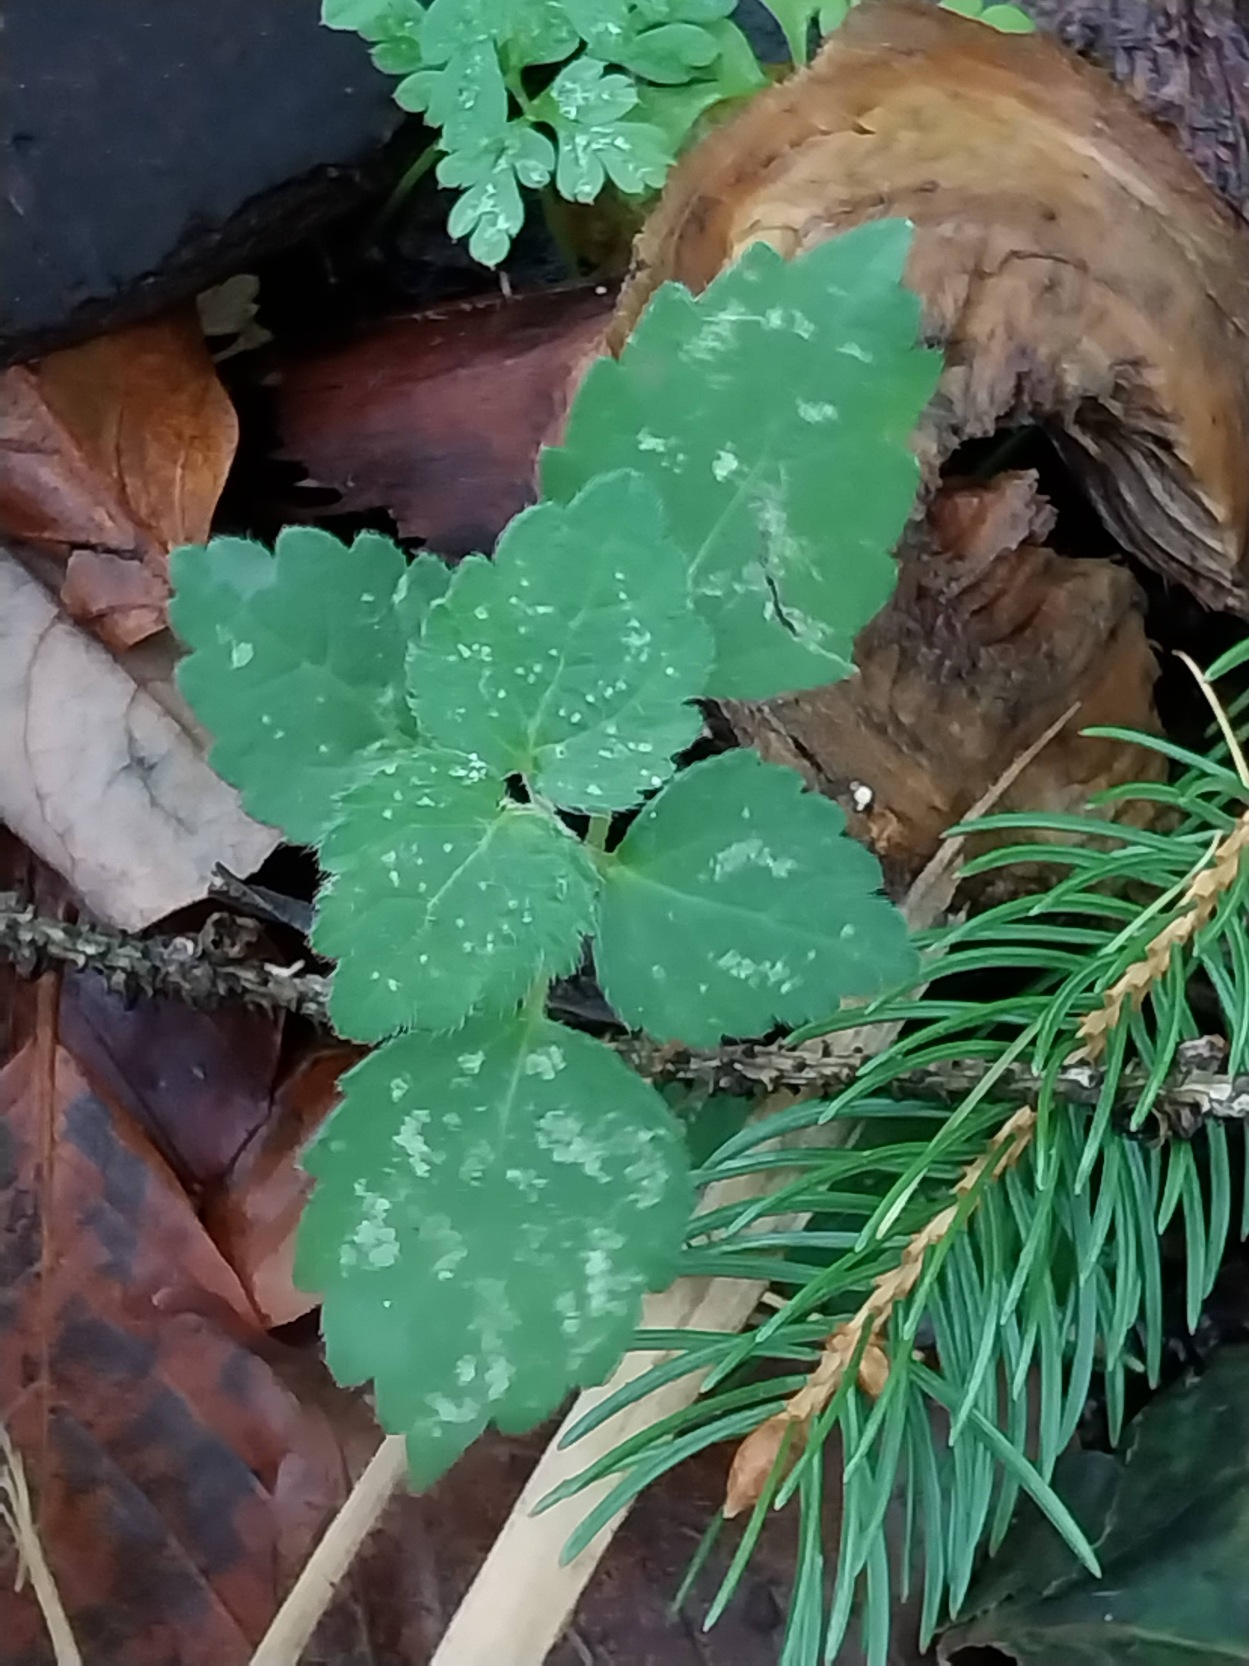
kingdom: Plantae
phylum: Tracheophyta
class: Magnoliopsida
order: Lamiales
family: Lamiaceae
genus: Lamium
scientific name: Lamium galeobdolon
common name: Almindelig guldnælde
